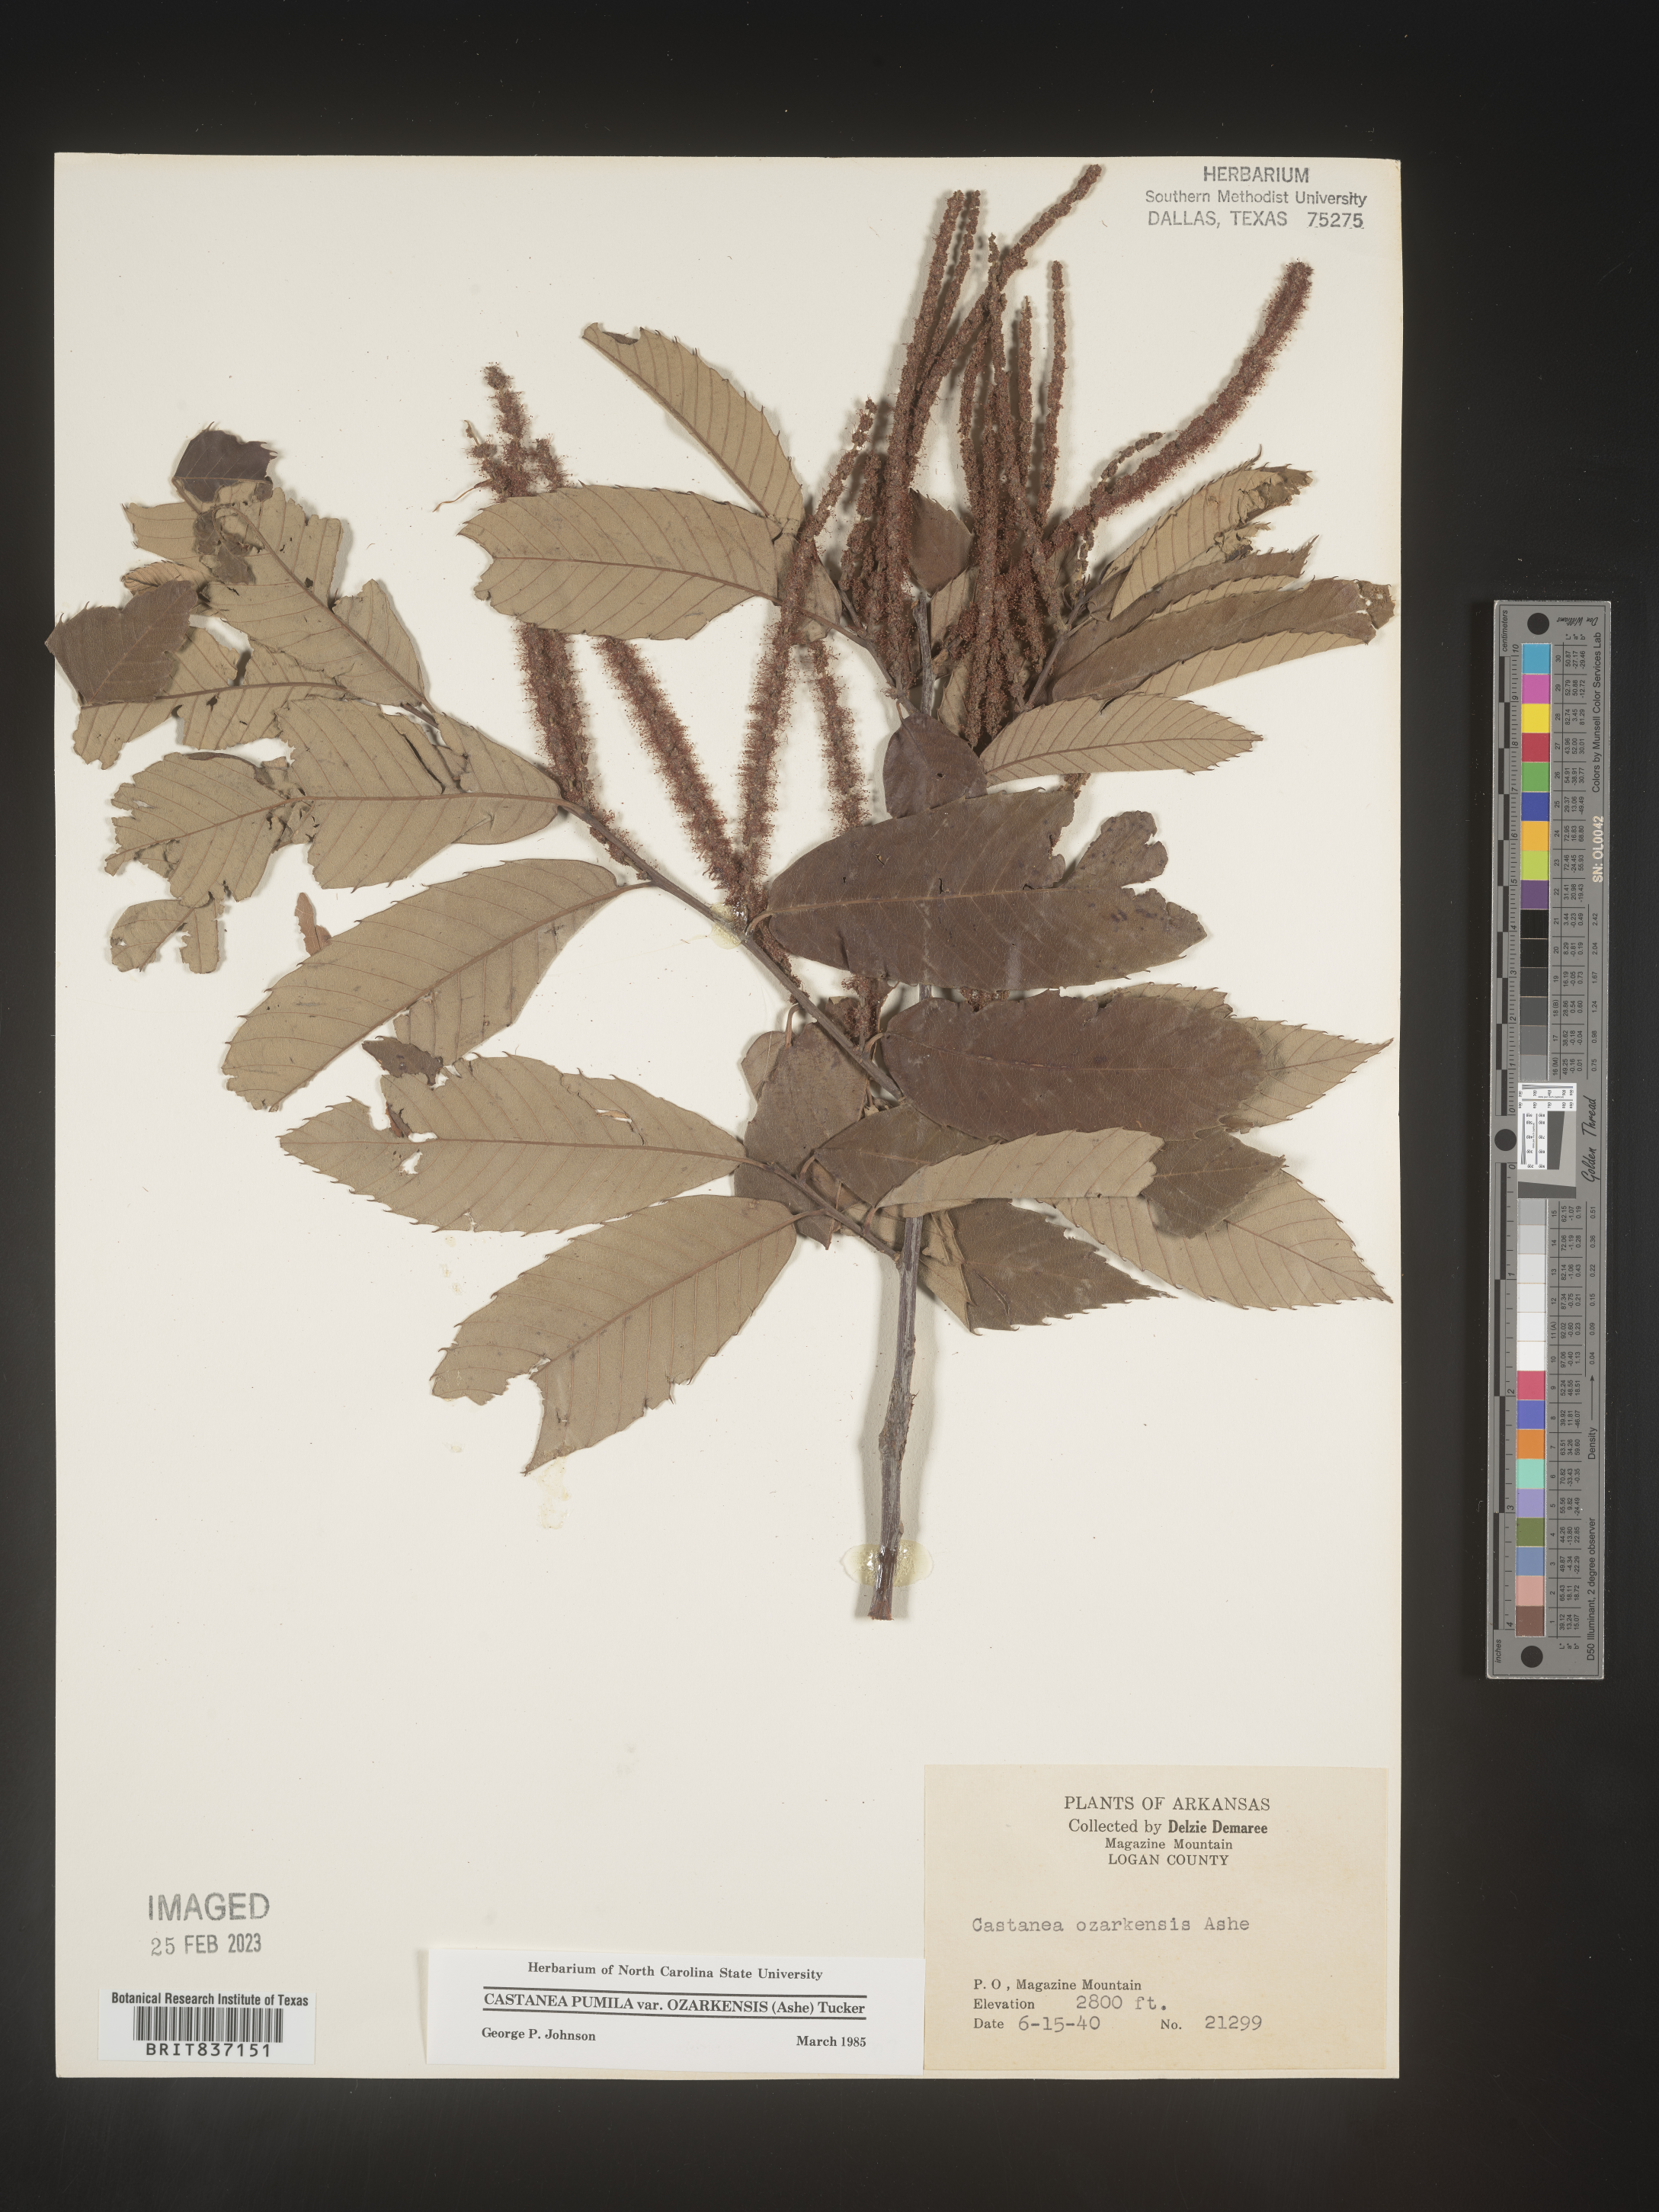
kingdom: Plantae
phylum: Tracheophyta
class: Magnoliopsida
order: Fagales
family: Fagaceae
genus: Castanea
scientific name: Castanea pumila
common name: Chinkapin
